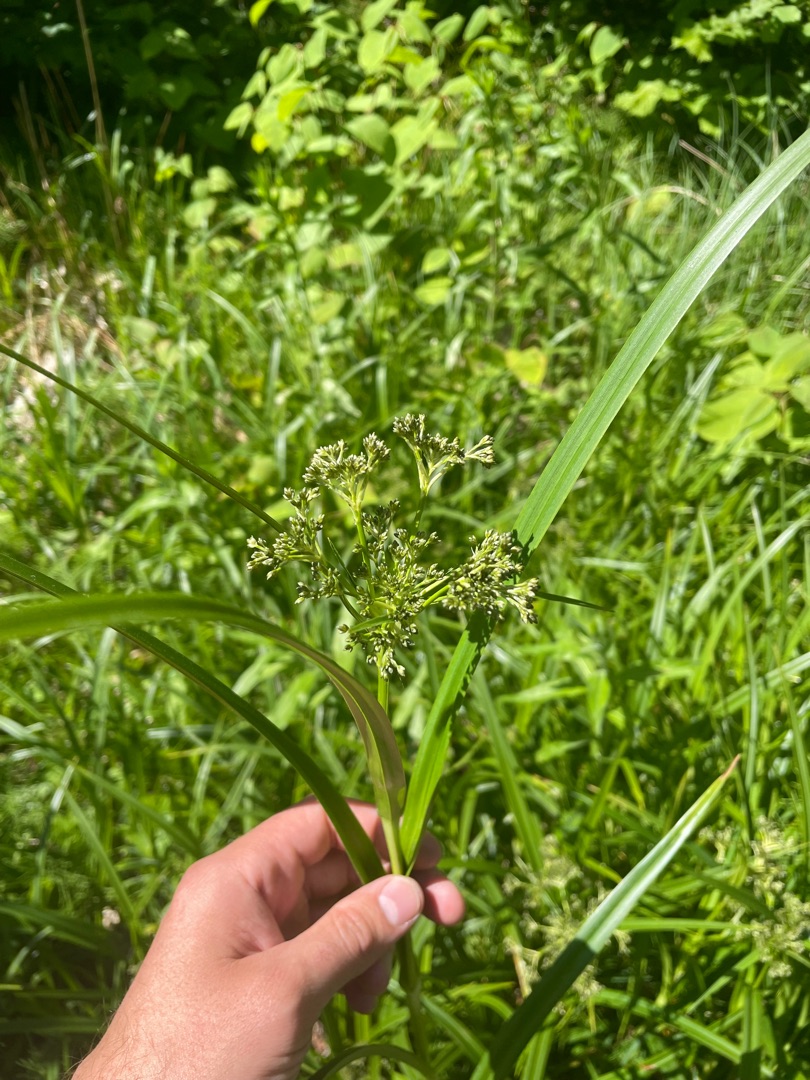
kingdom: Plantae
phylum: Tracheophyta
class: Liliopsida
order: Poales
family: Cyperaceae
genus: Scirpus
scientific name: Scirpus sylvaticus
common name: Skov-kogleaks
